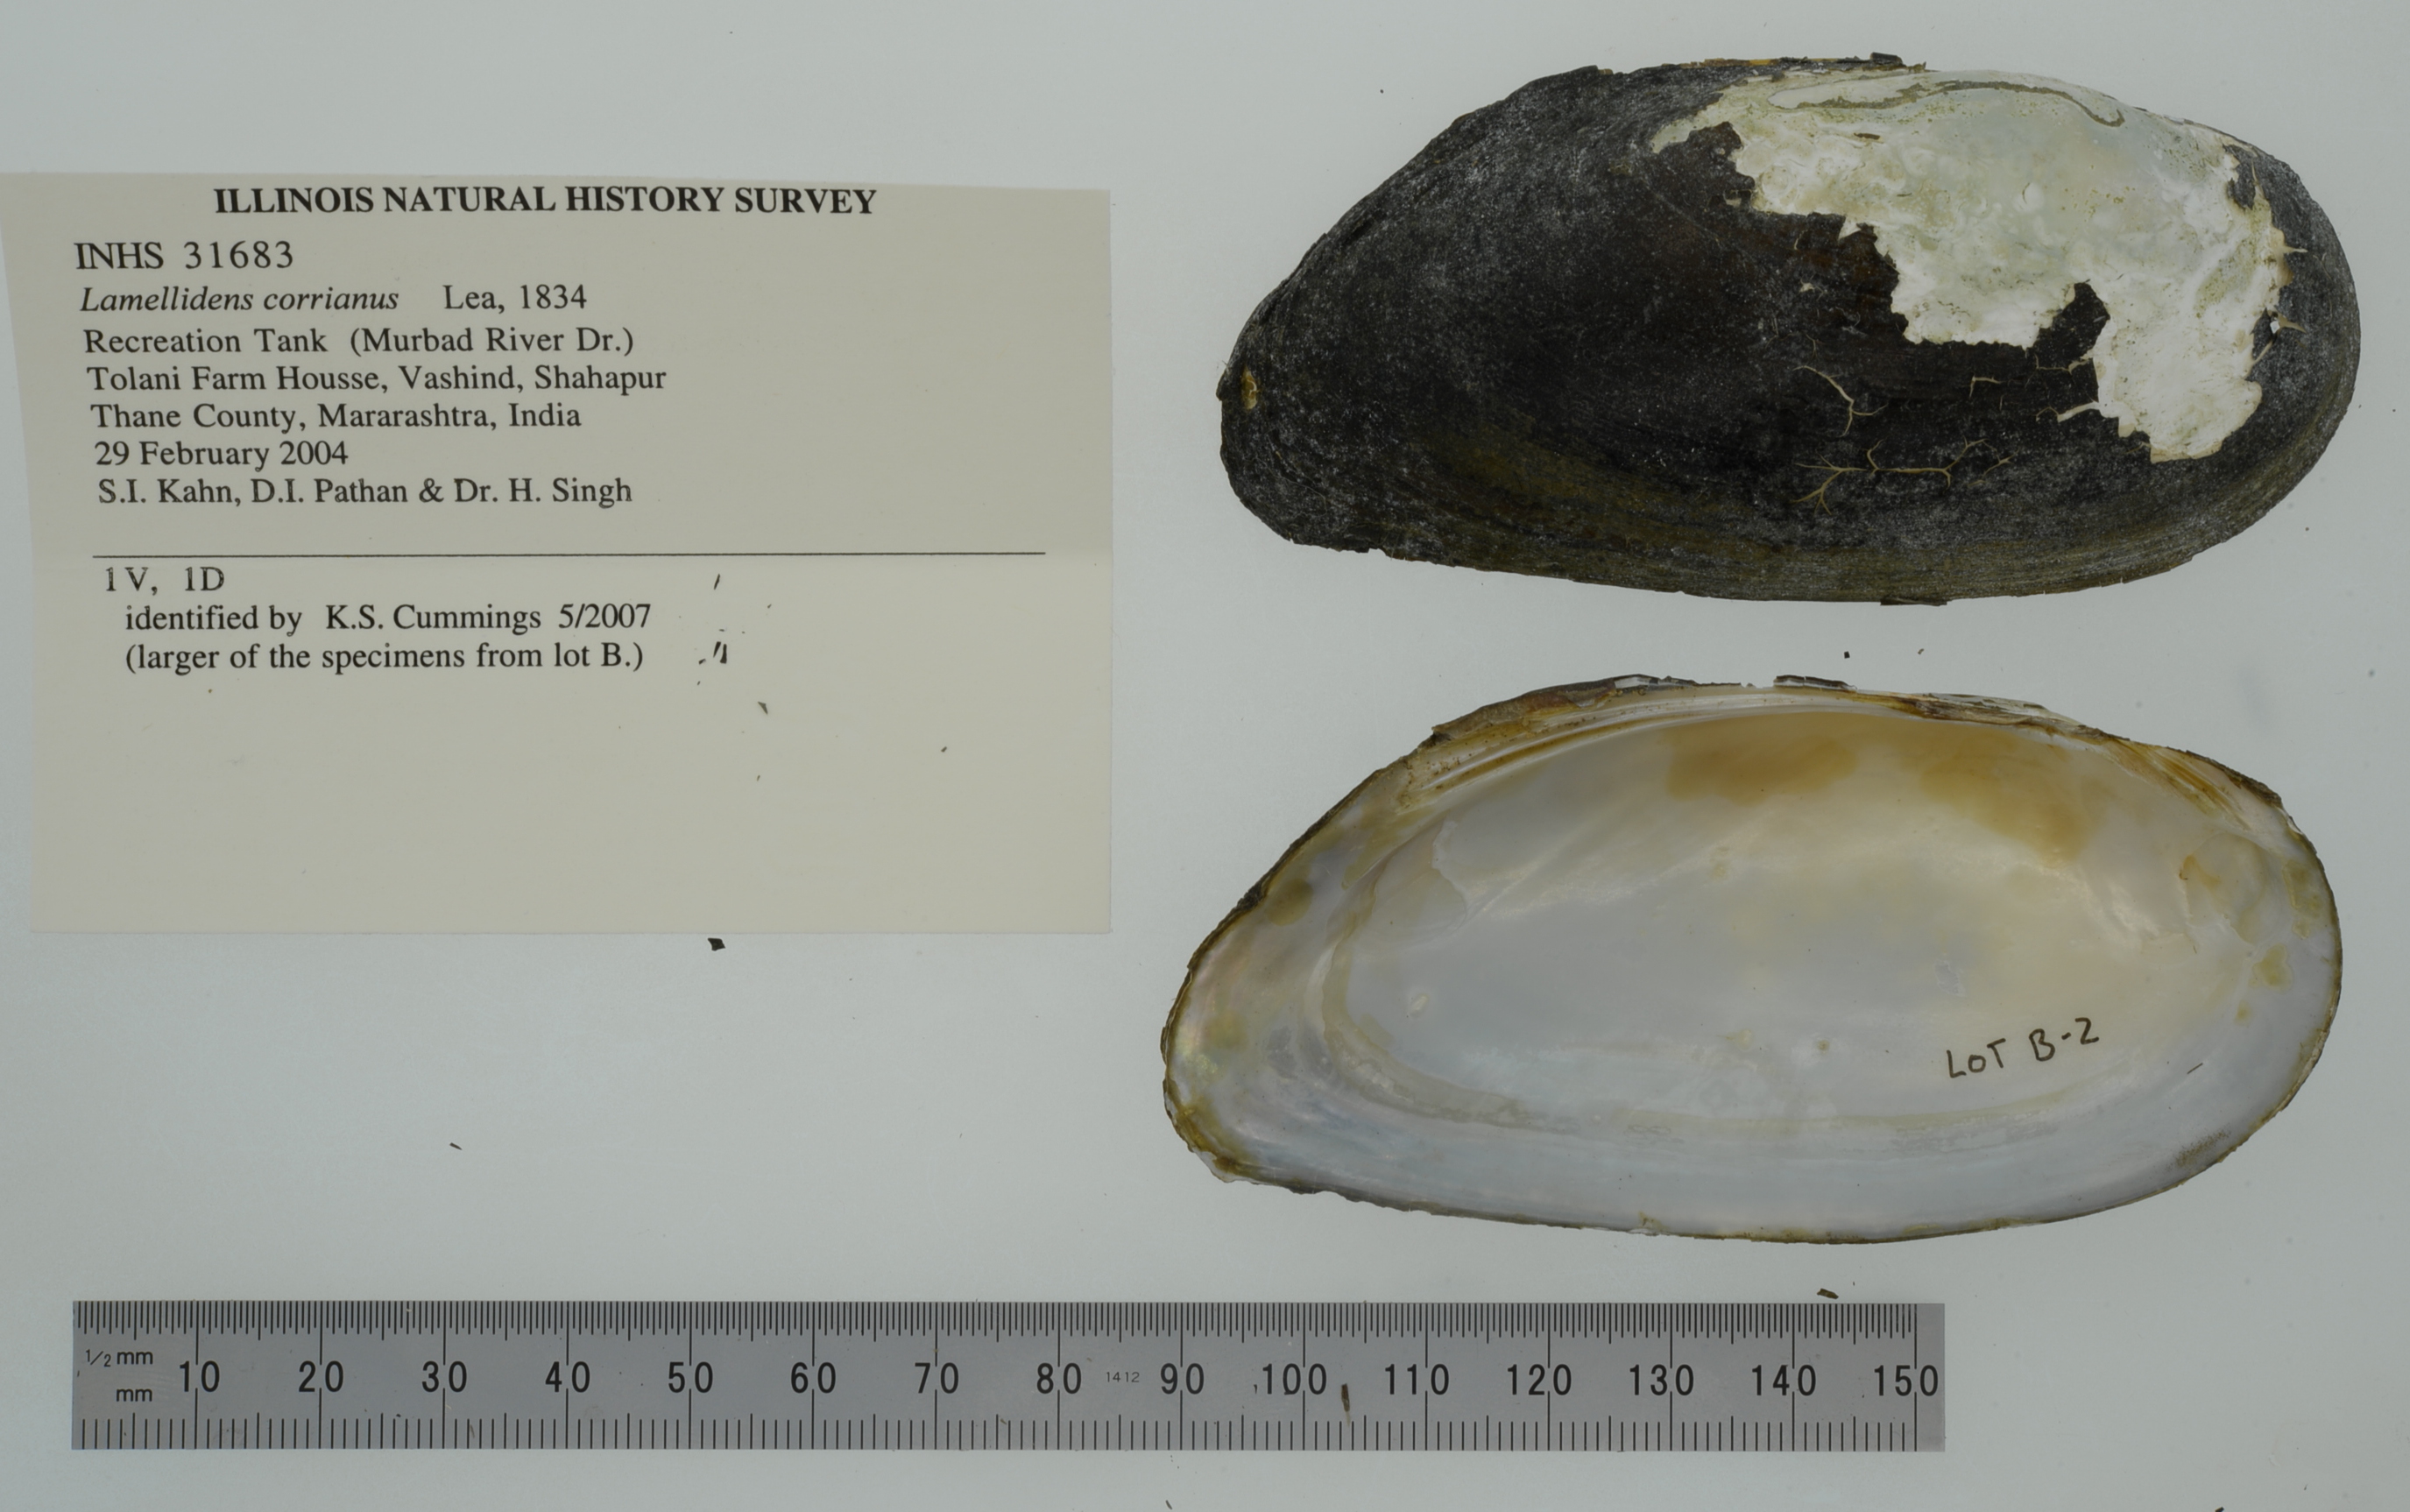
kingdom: Animalia
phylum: Mollusca
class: Bivalvia
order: Unionida
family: Unionidae
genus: Lamellidens
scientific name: Lamellidens corrianus
